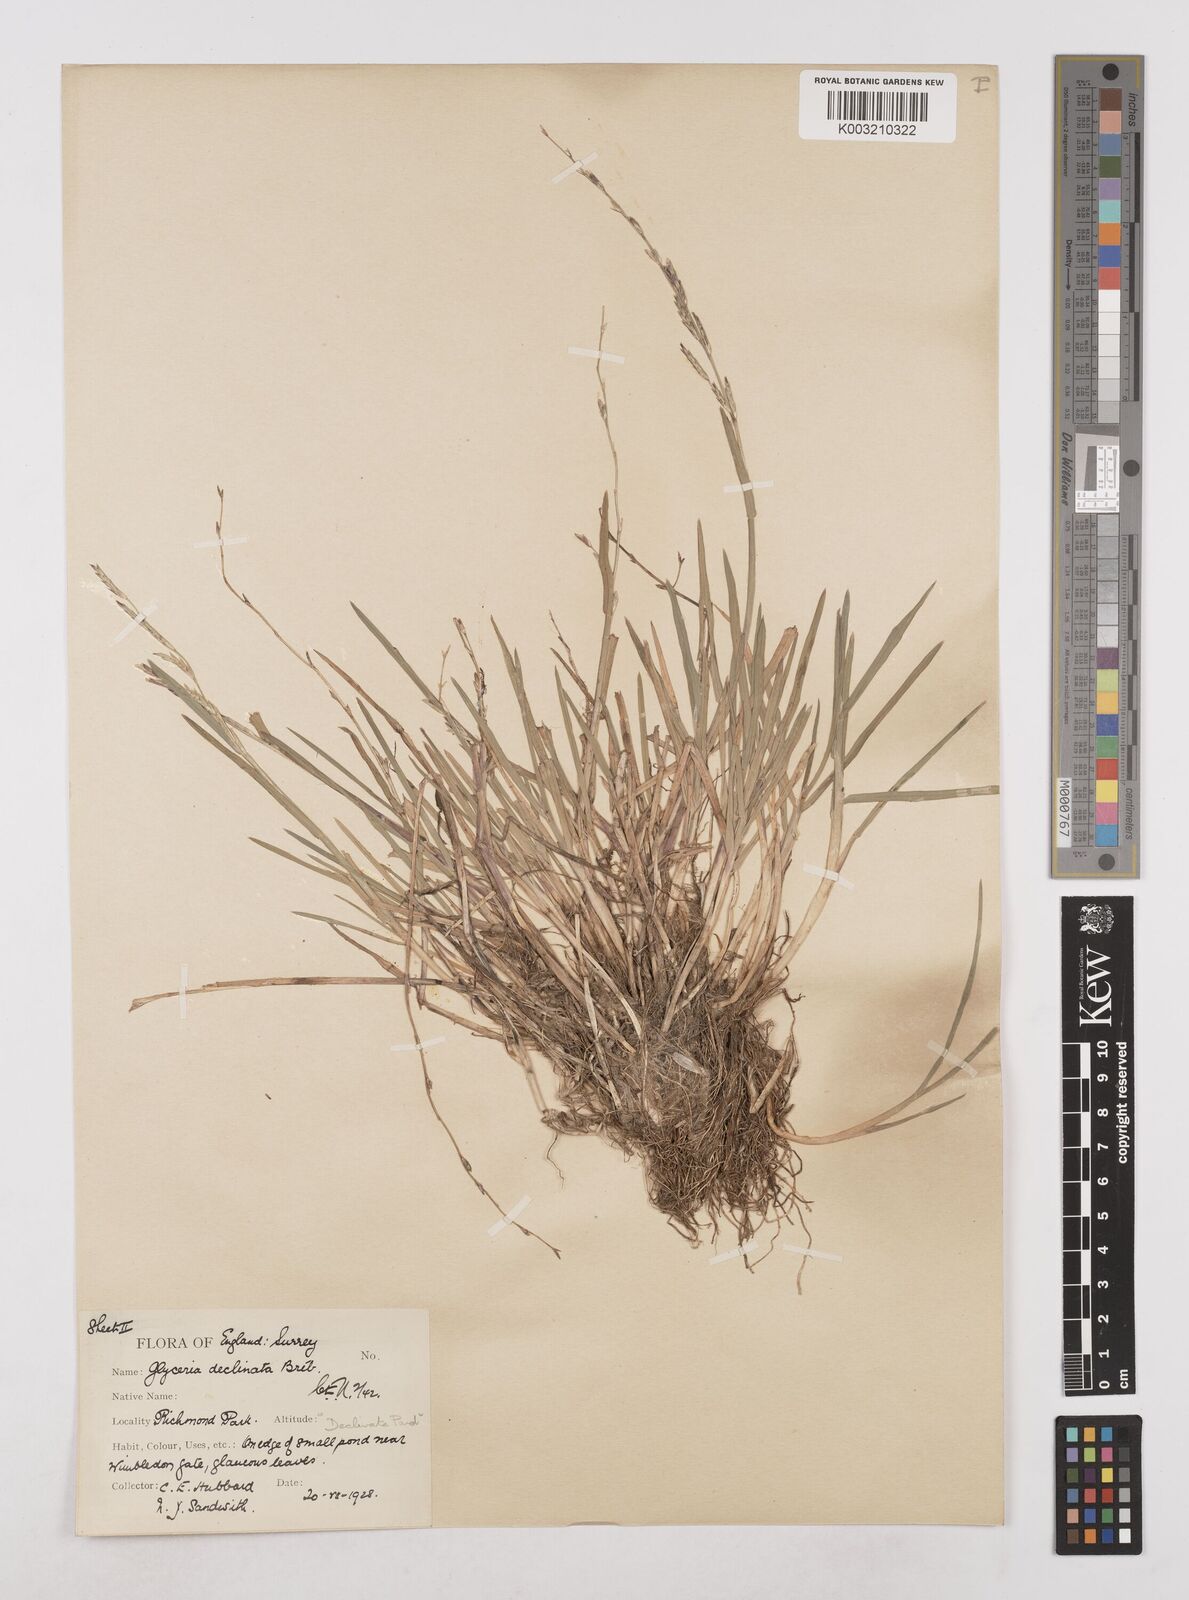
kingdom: Plantae
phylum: Tracheophyta
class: Liliopsida
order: Poales
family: Poaceae
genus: Glyceria
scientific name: Glyceria declinata
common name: Small sweet-grass
